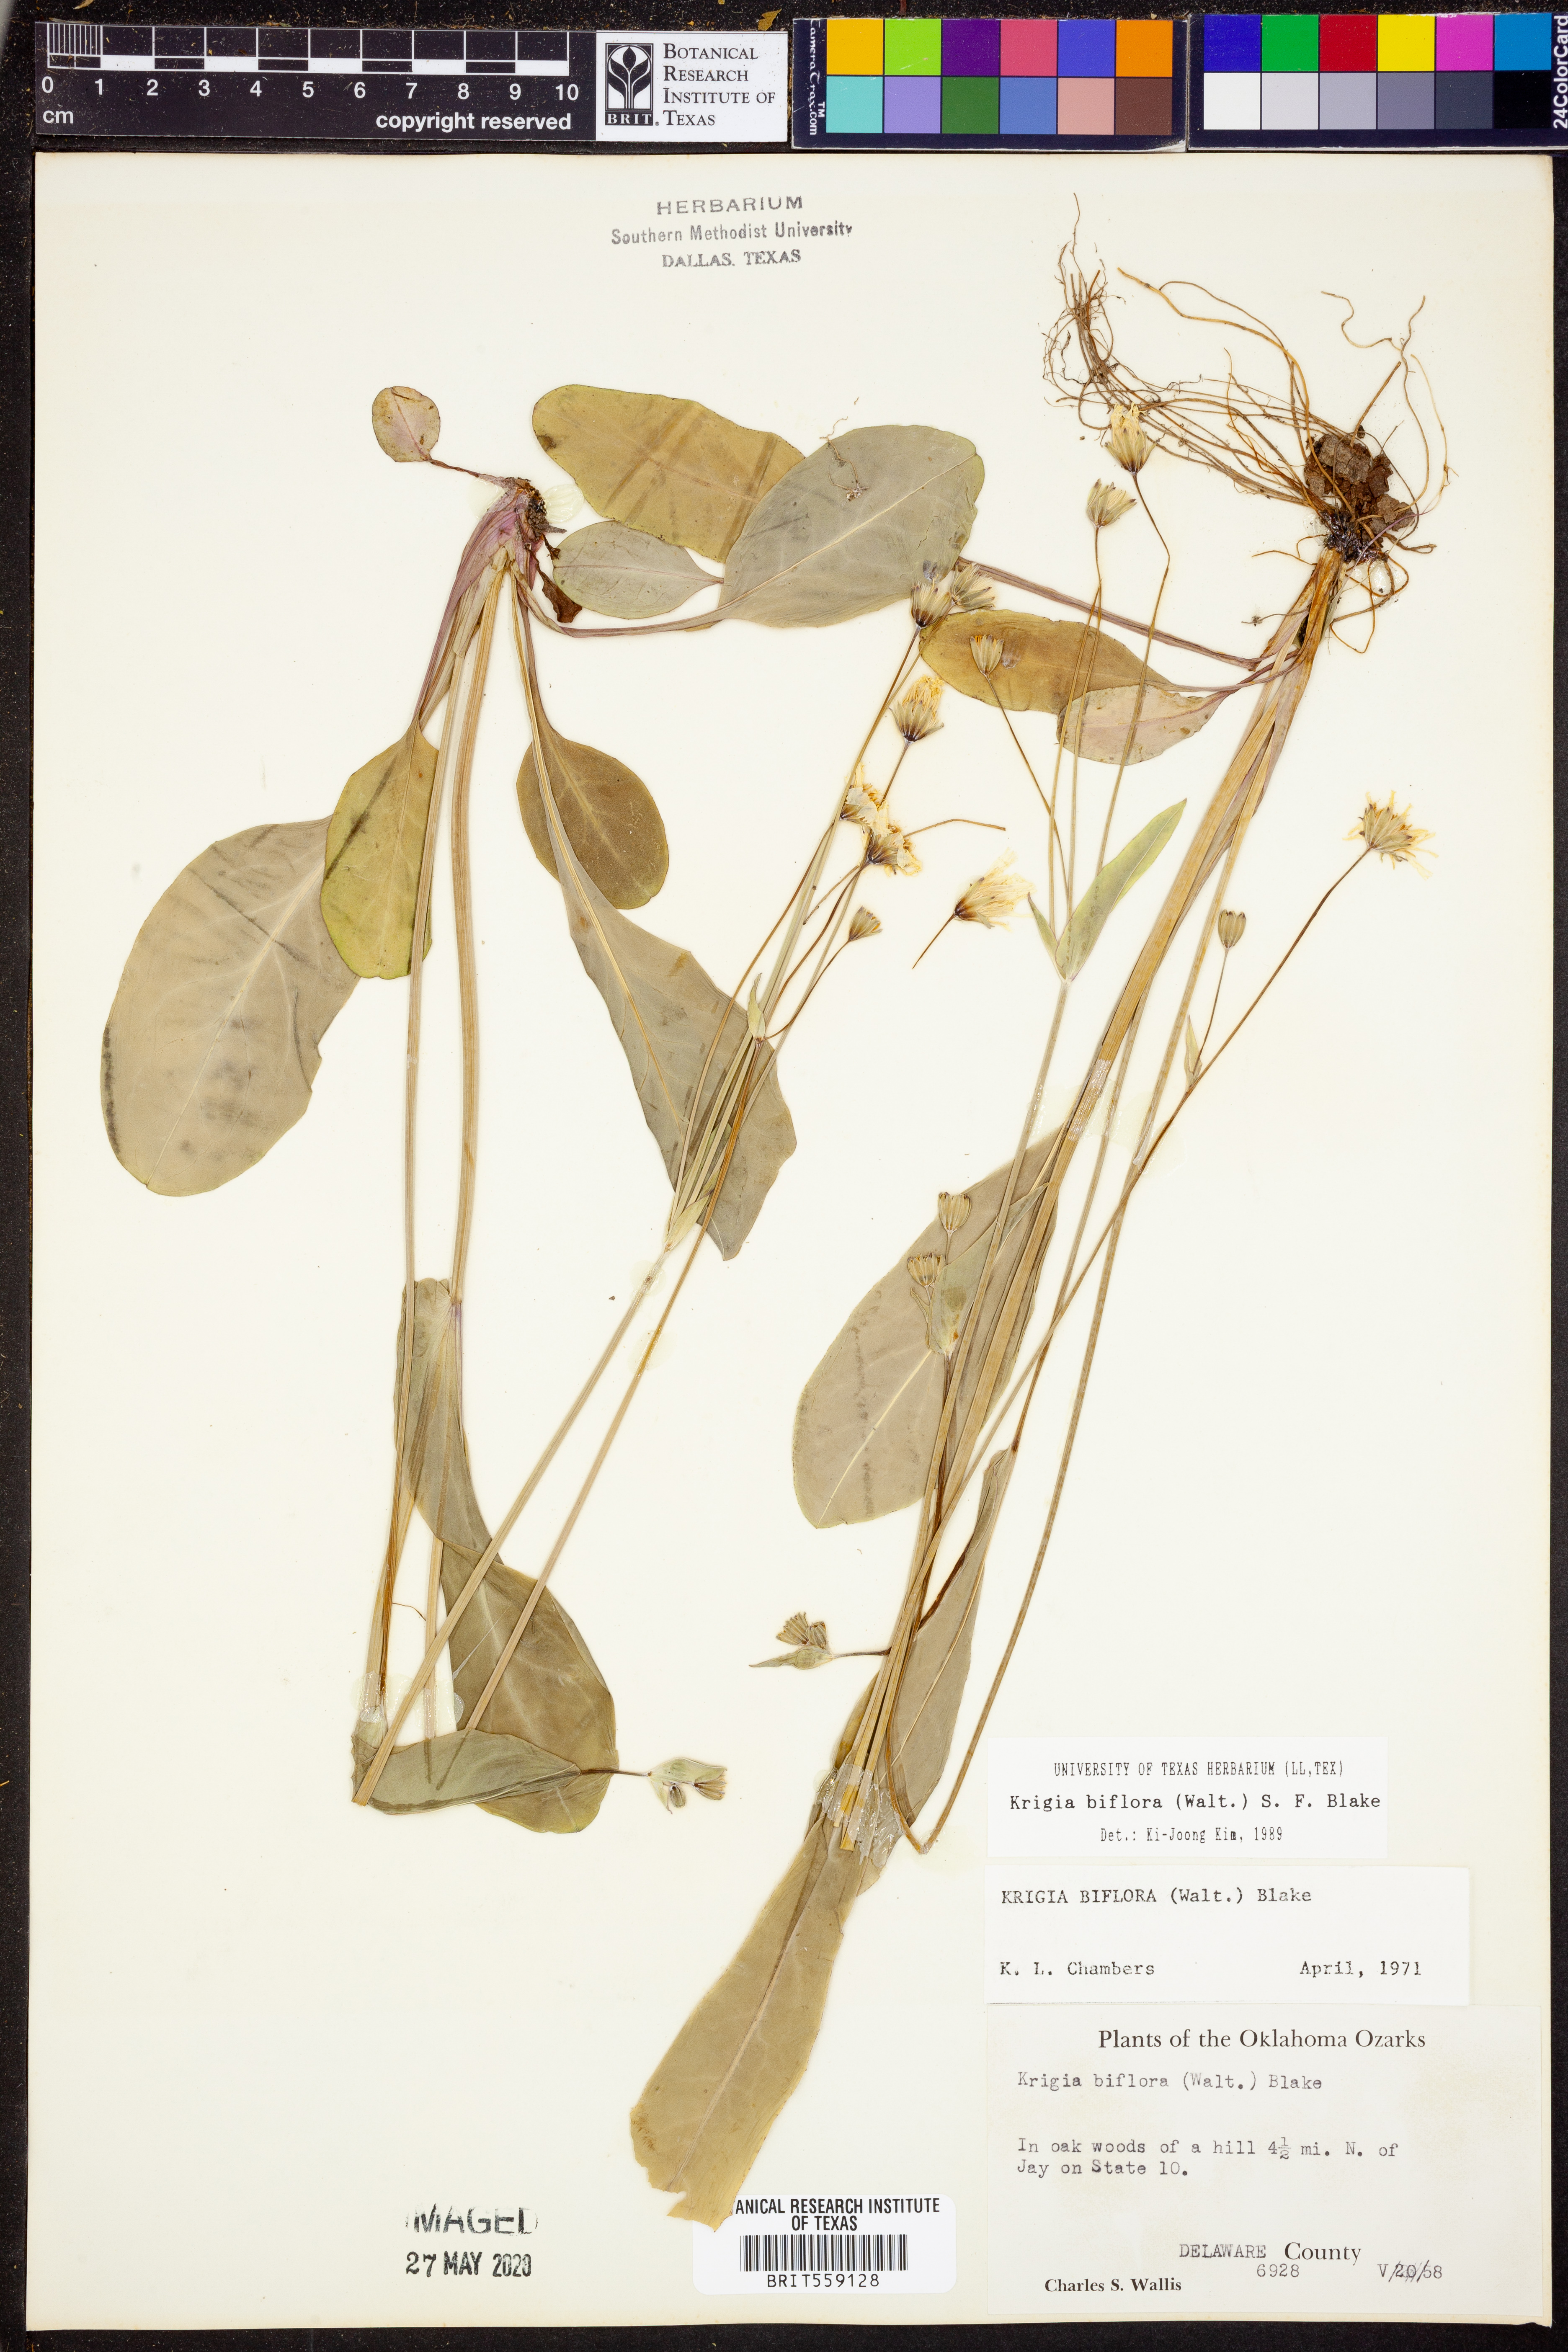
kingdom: Plantae
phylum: Tracheophyta
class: Magnoliopsida
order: Asterales
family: Asteraceae
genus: Krigia
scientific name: Krigia biflora
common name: Orange dwarf-dandelion
